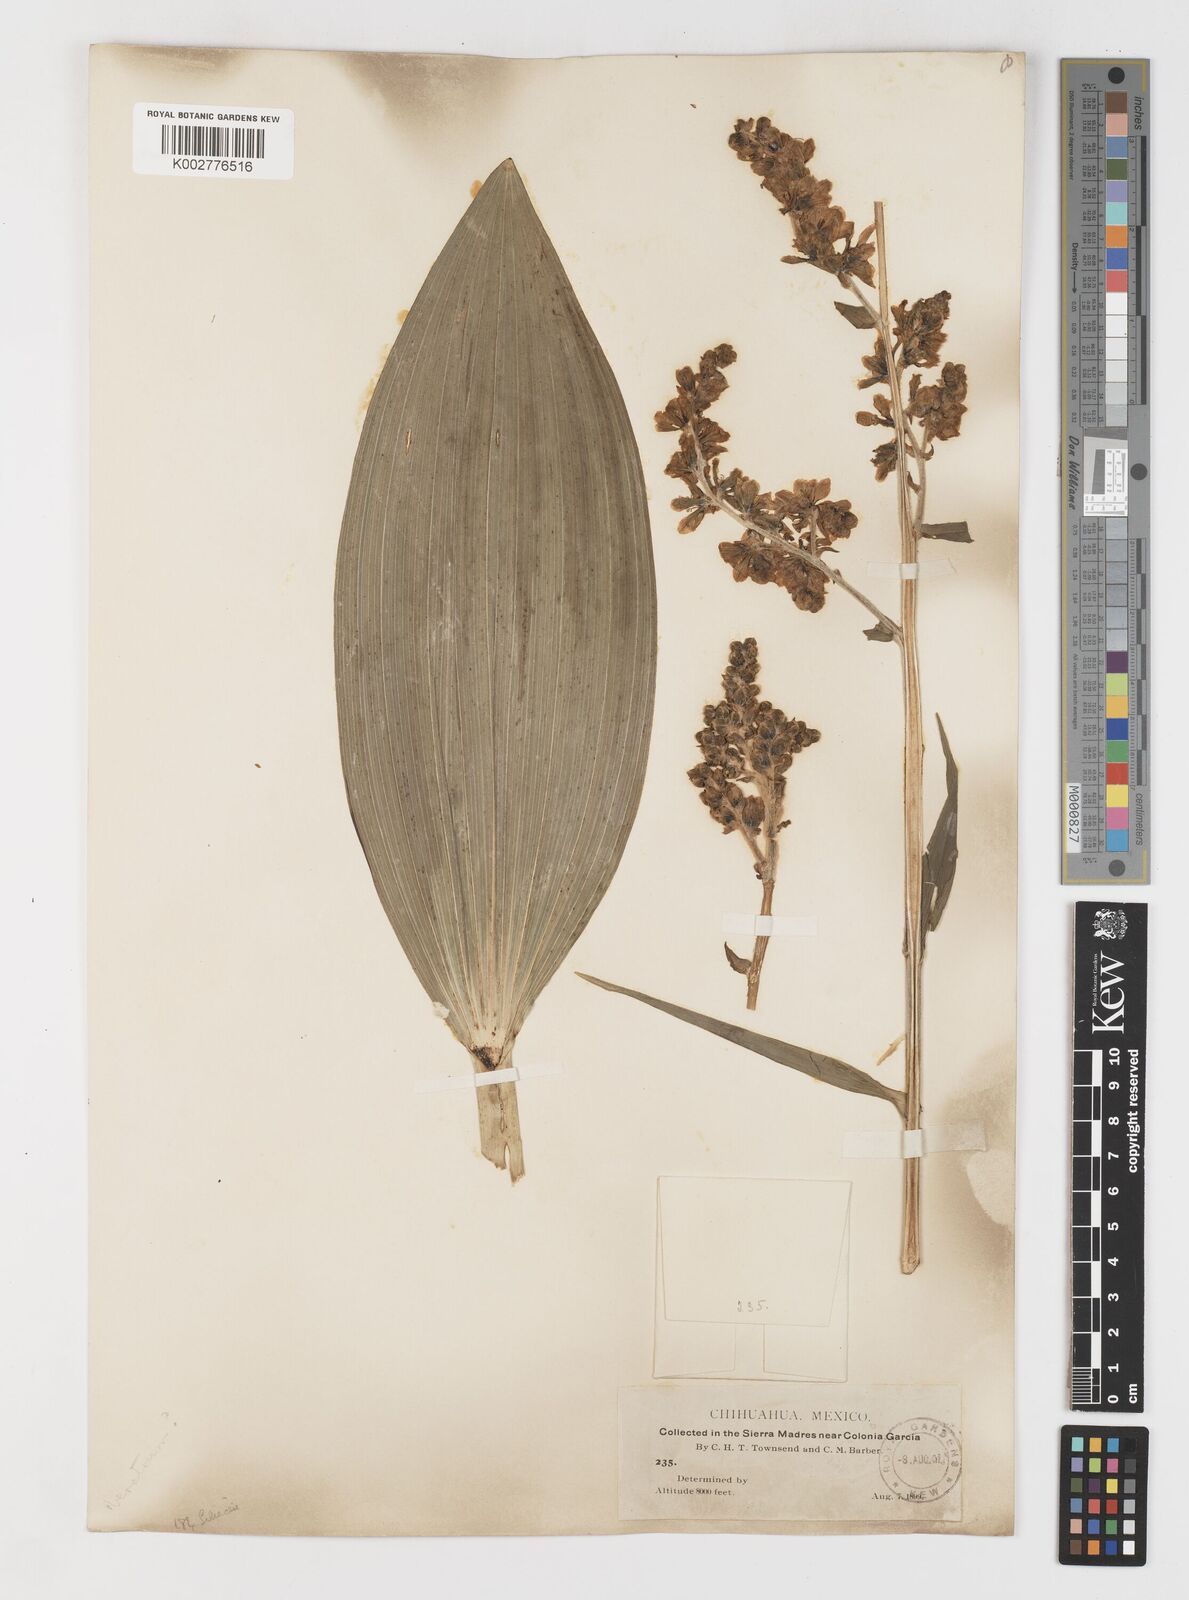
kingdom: Plantae
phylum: Tracheophyta
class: Liliopsida
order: Liliales
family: Melanthiaceae
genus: Veratrum
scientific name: Veratrum californicum
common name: California veratrum
